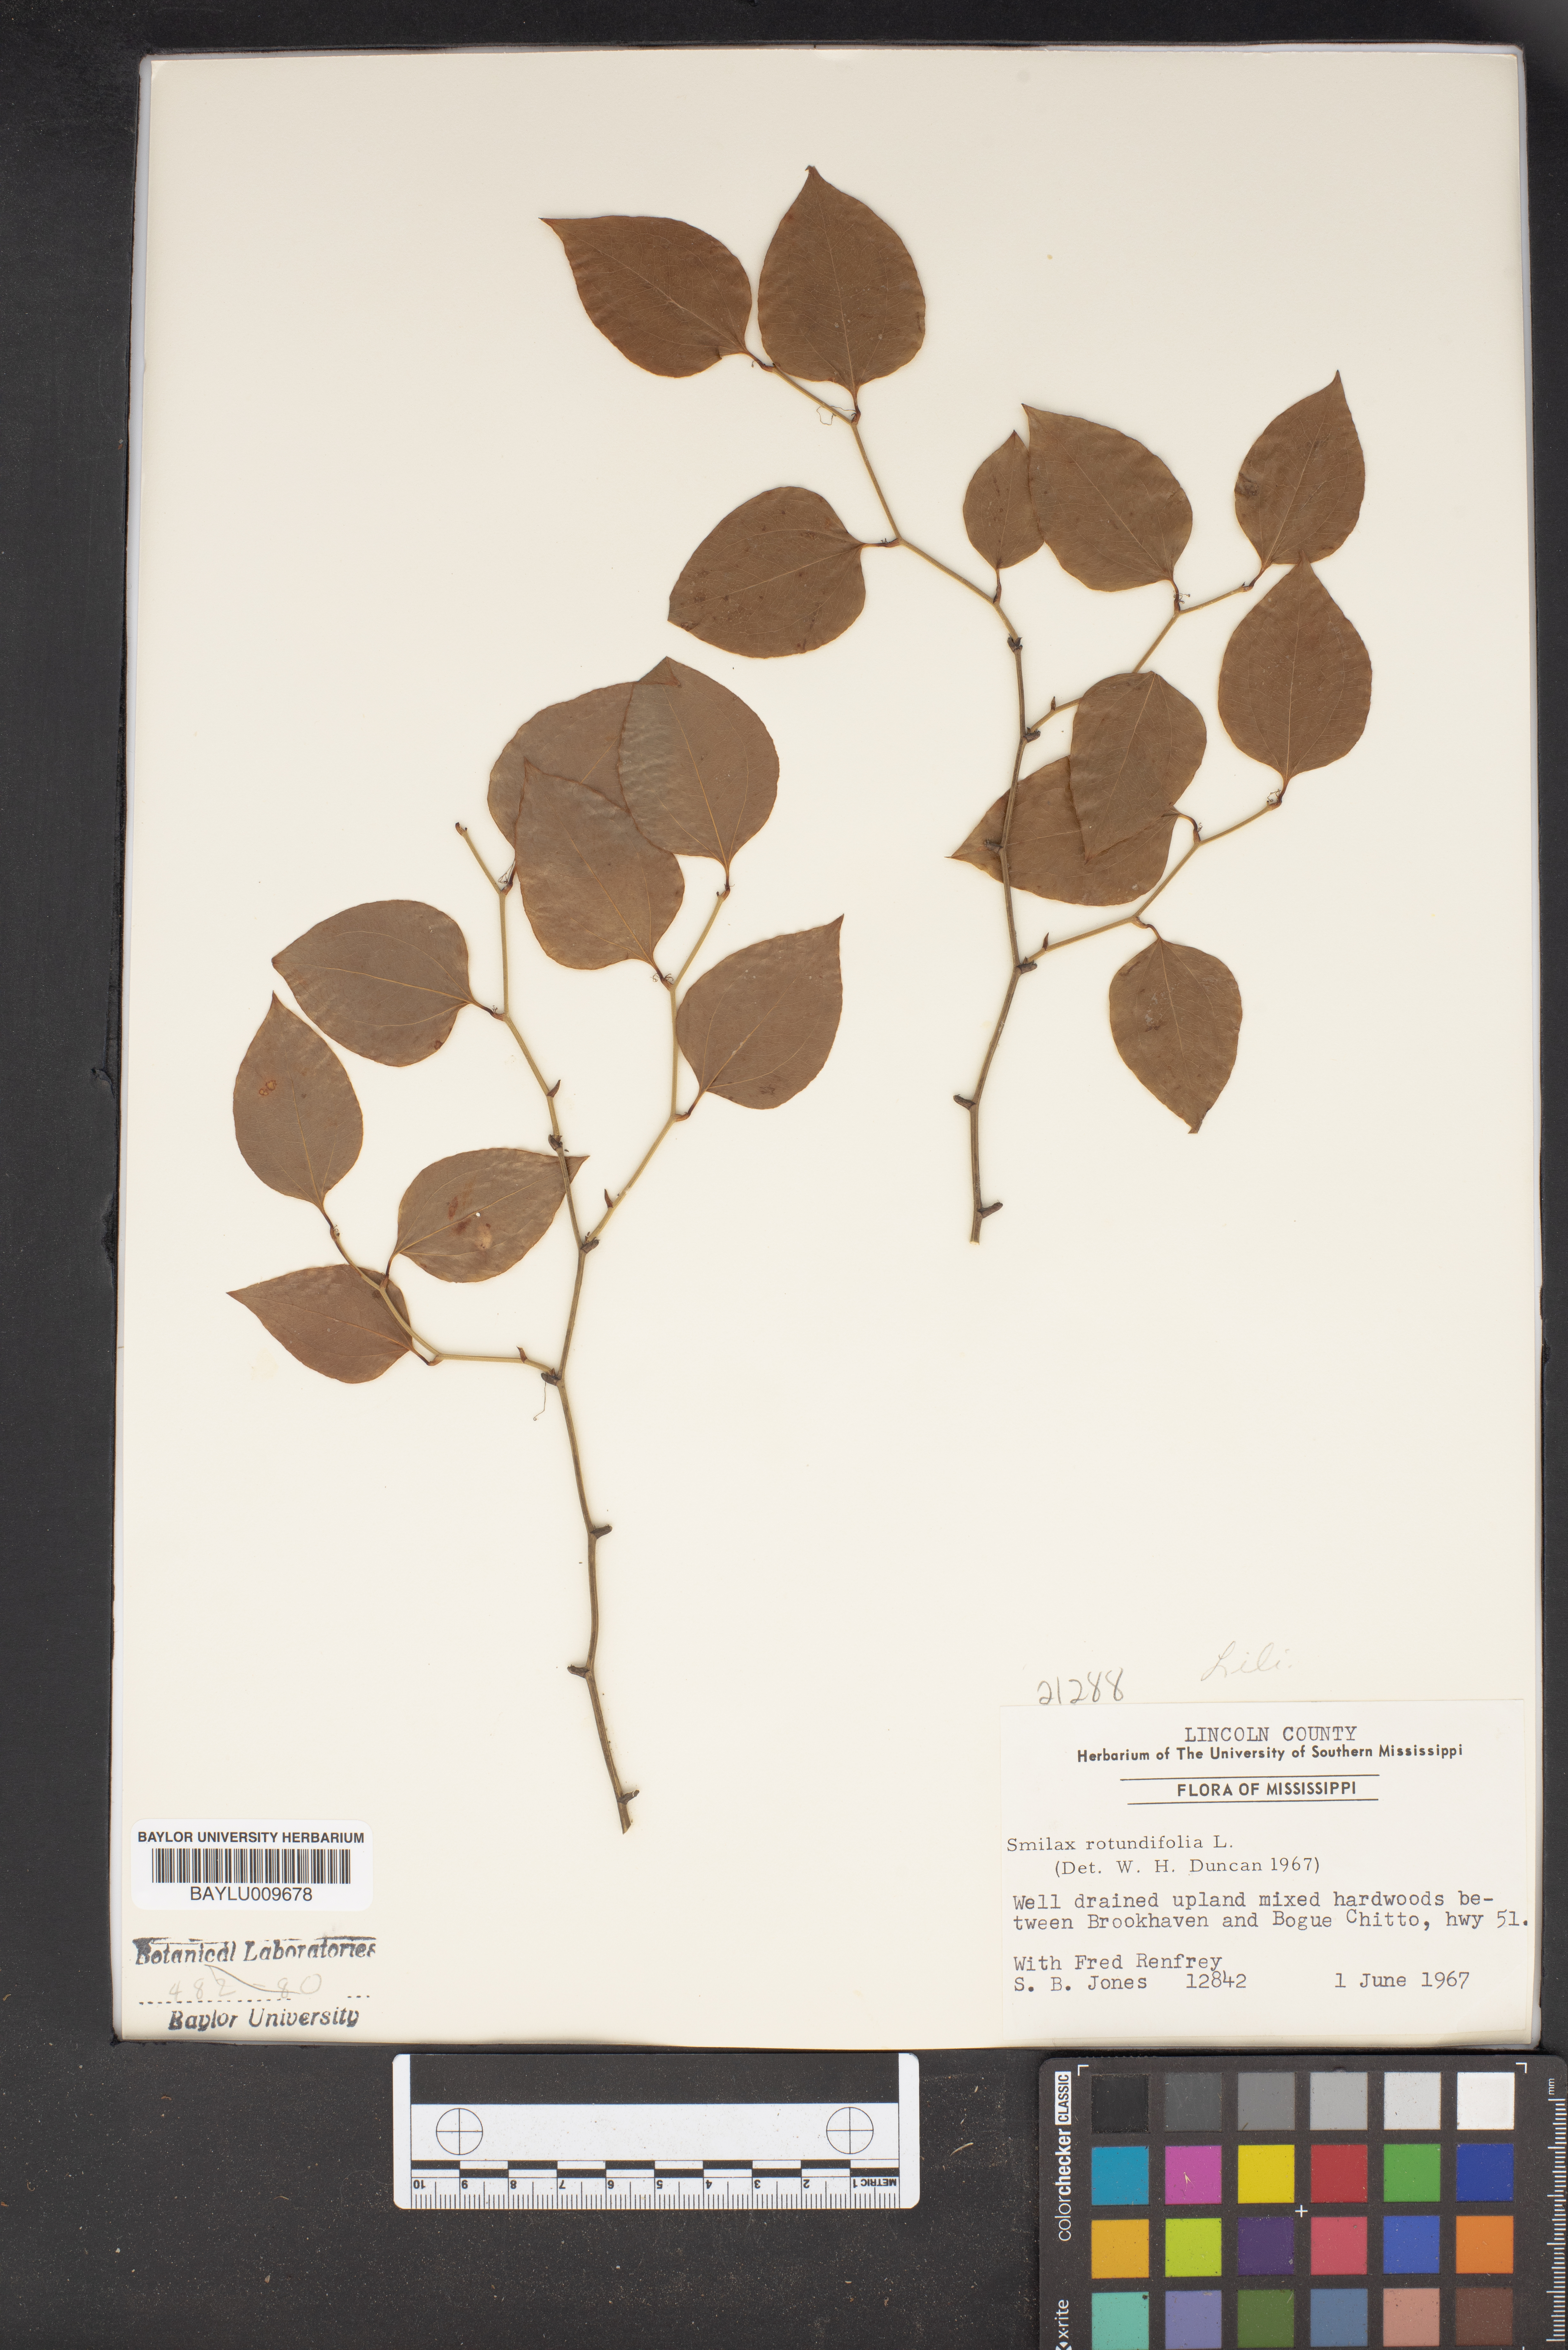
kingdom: Plantae
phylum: Tracheophyta
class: Liliopsida
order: Liliales
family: Smilacaceae
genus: Smilax
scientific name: Smilax rotundifolia
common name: Bullbriar
